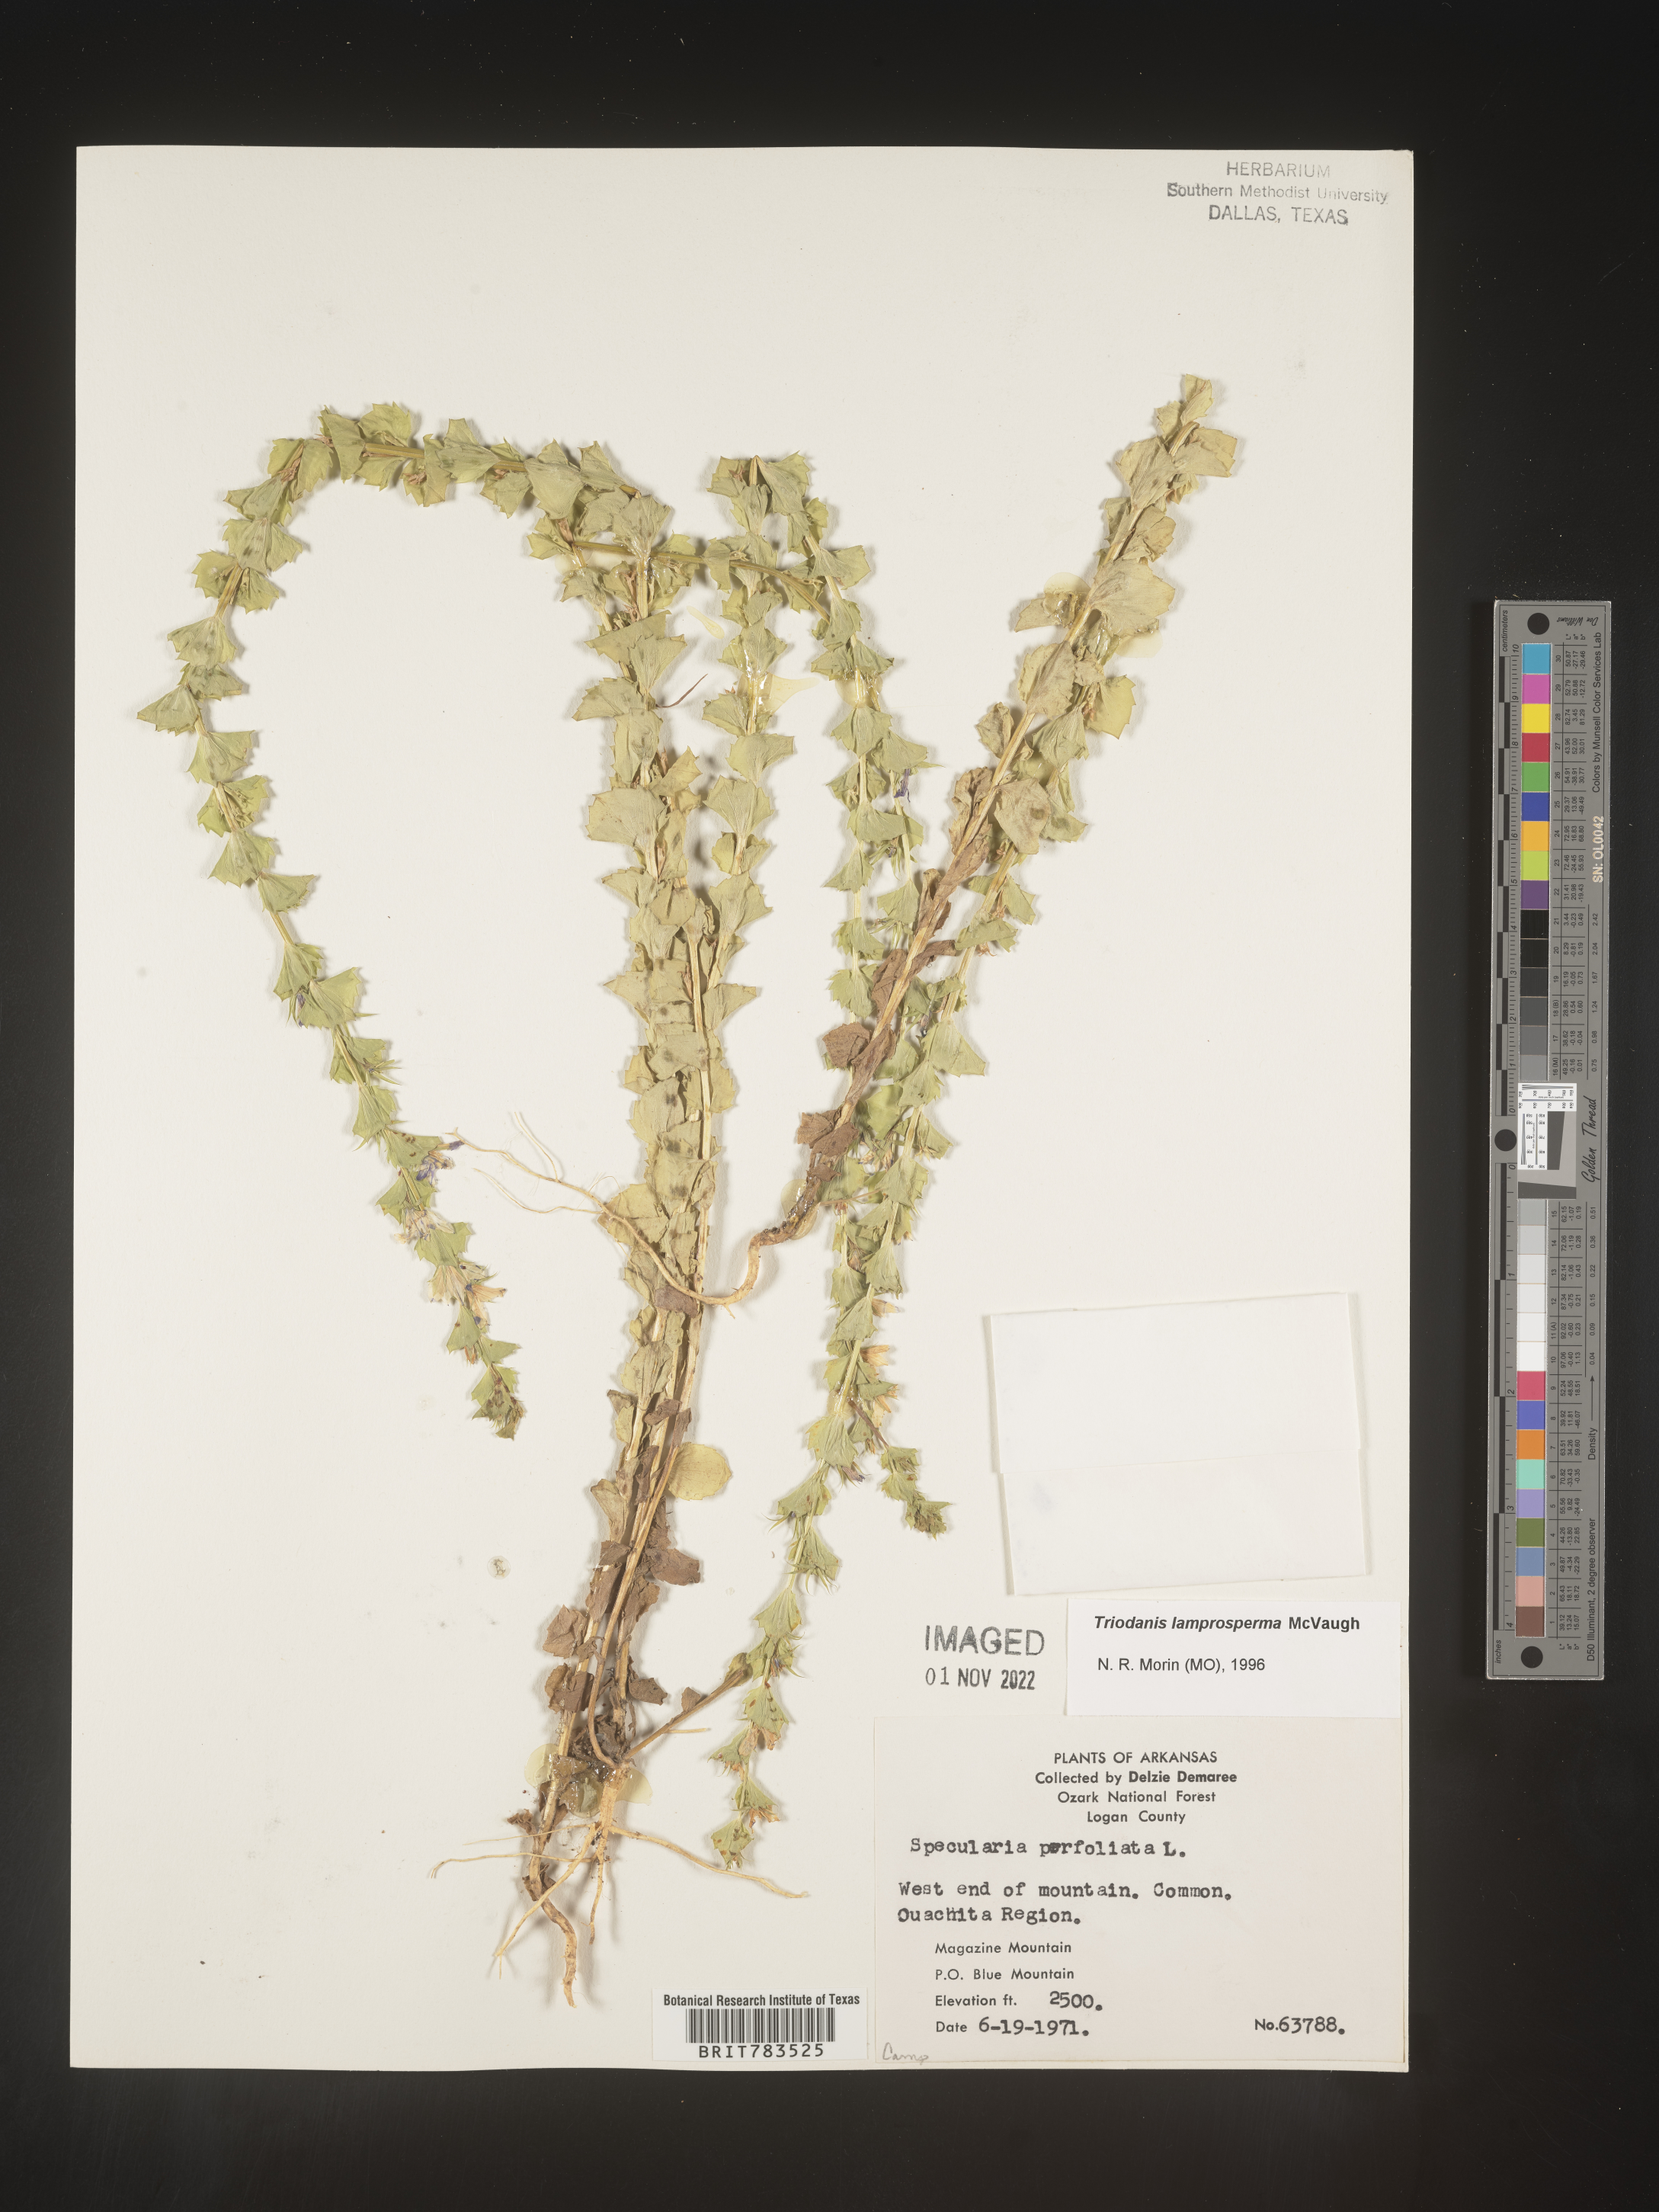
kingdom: Plantae
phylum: Tracheophyta
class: Magnoliopsida
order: Asterales
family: Campanulaceae
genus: Triodanis
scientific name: Triodanis lamprosperma
